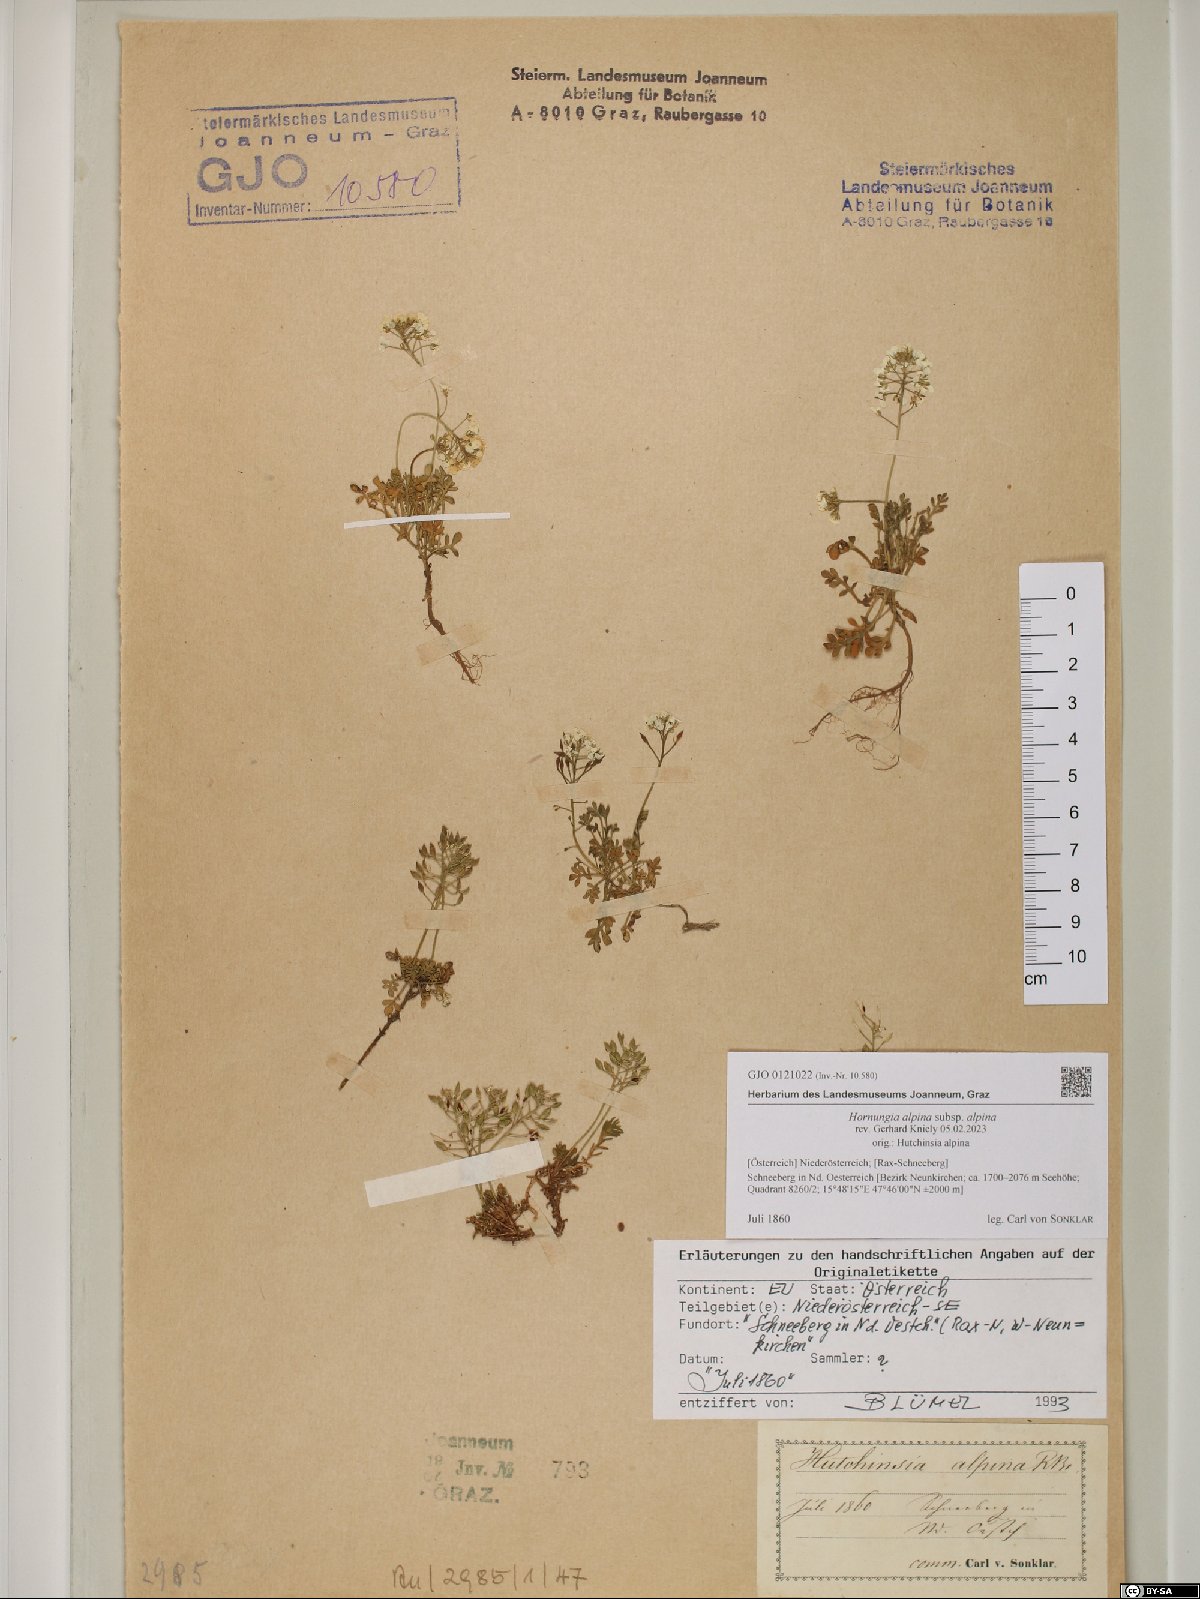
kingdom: Plantae
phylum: Tracheophyta
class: Magnoliopsida
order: Brassicales
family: Brassicaceae
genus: Hornungia
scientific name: Hornungia alpina
